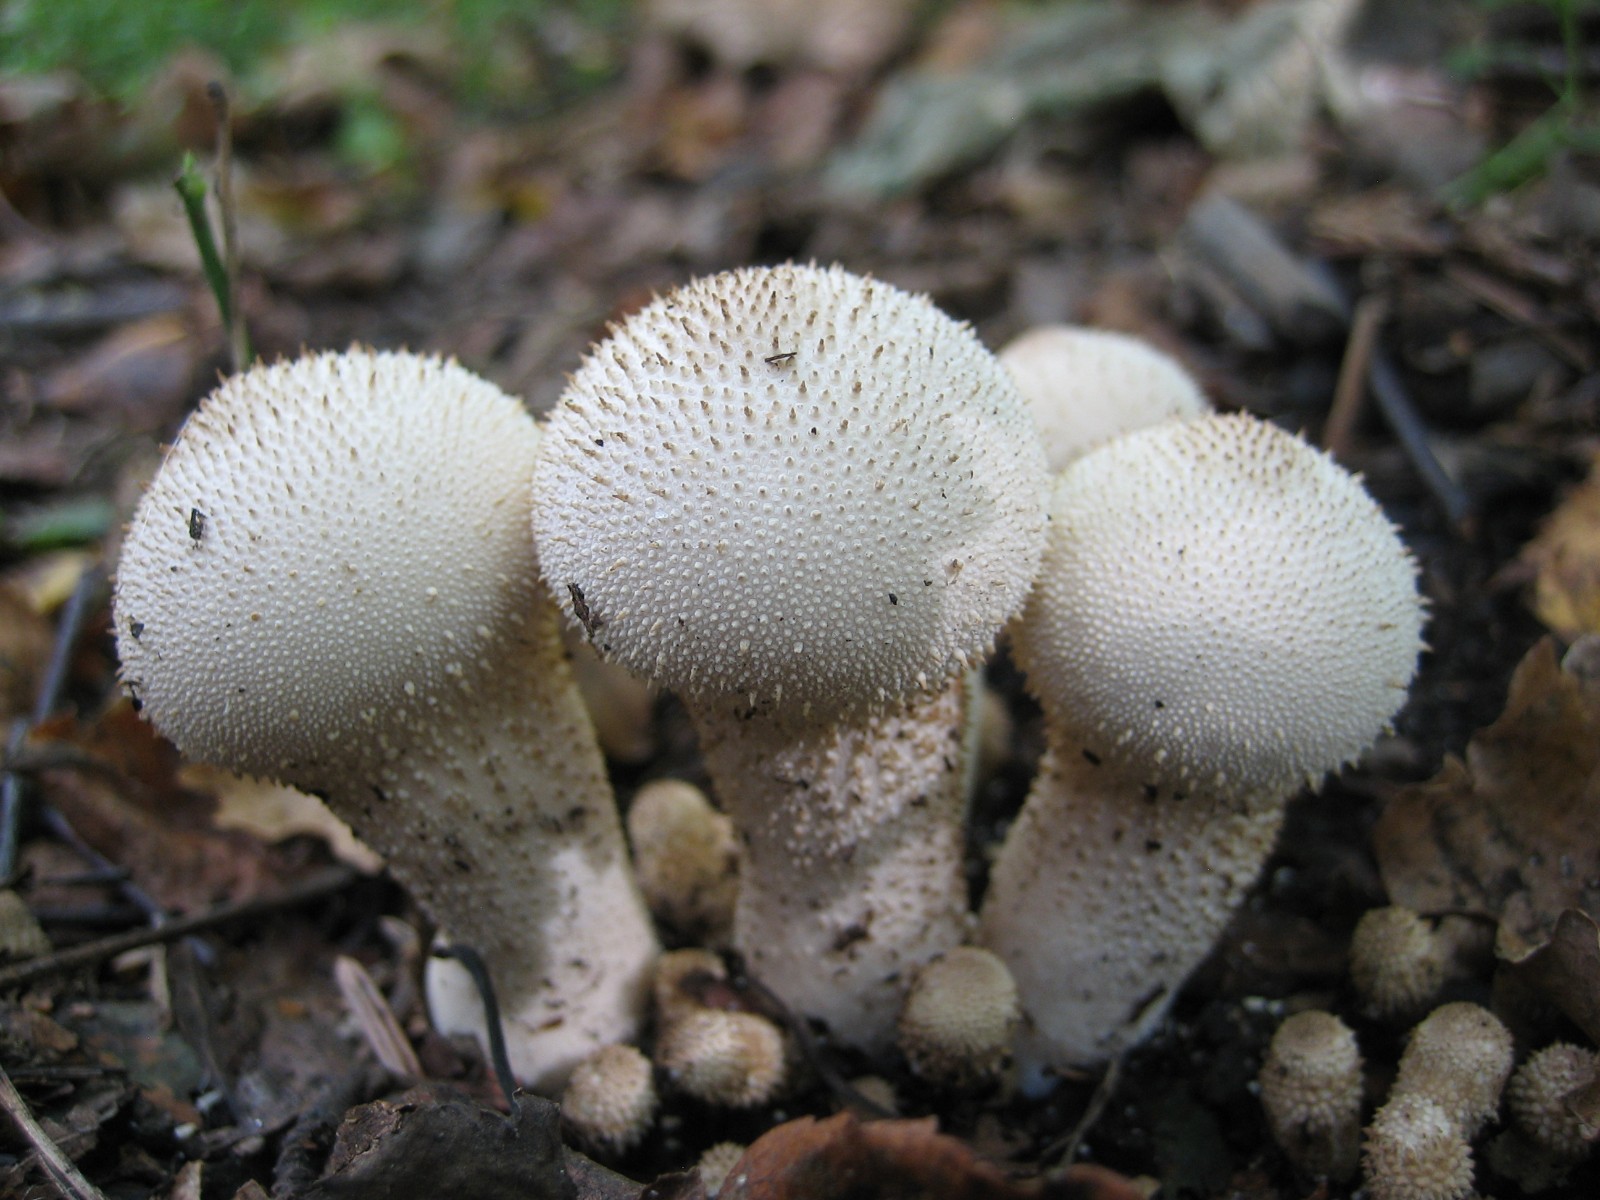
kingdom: Fungi
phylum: Basidiomycota
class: Agaricomycetes
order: Agaricales
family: Lycoperdaceae
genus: Lycoperdon
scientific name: Lycoperdon perlatum
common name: krystal-støvbold
